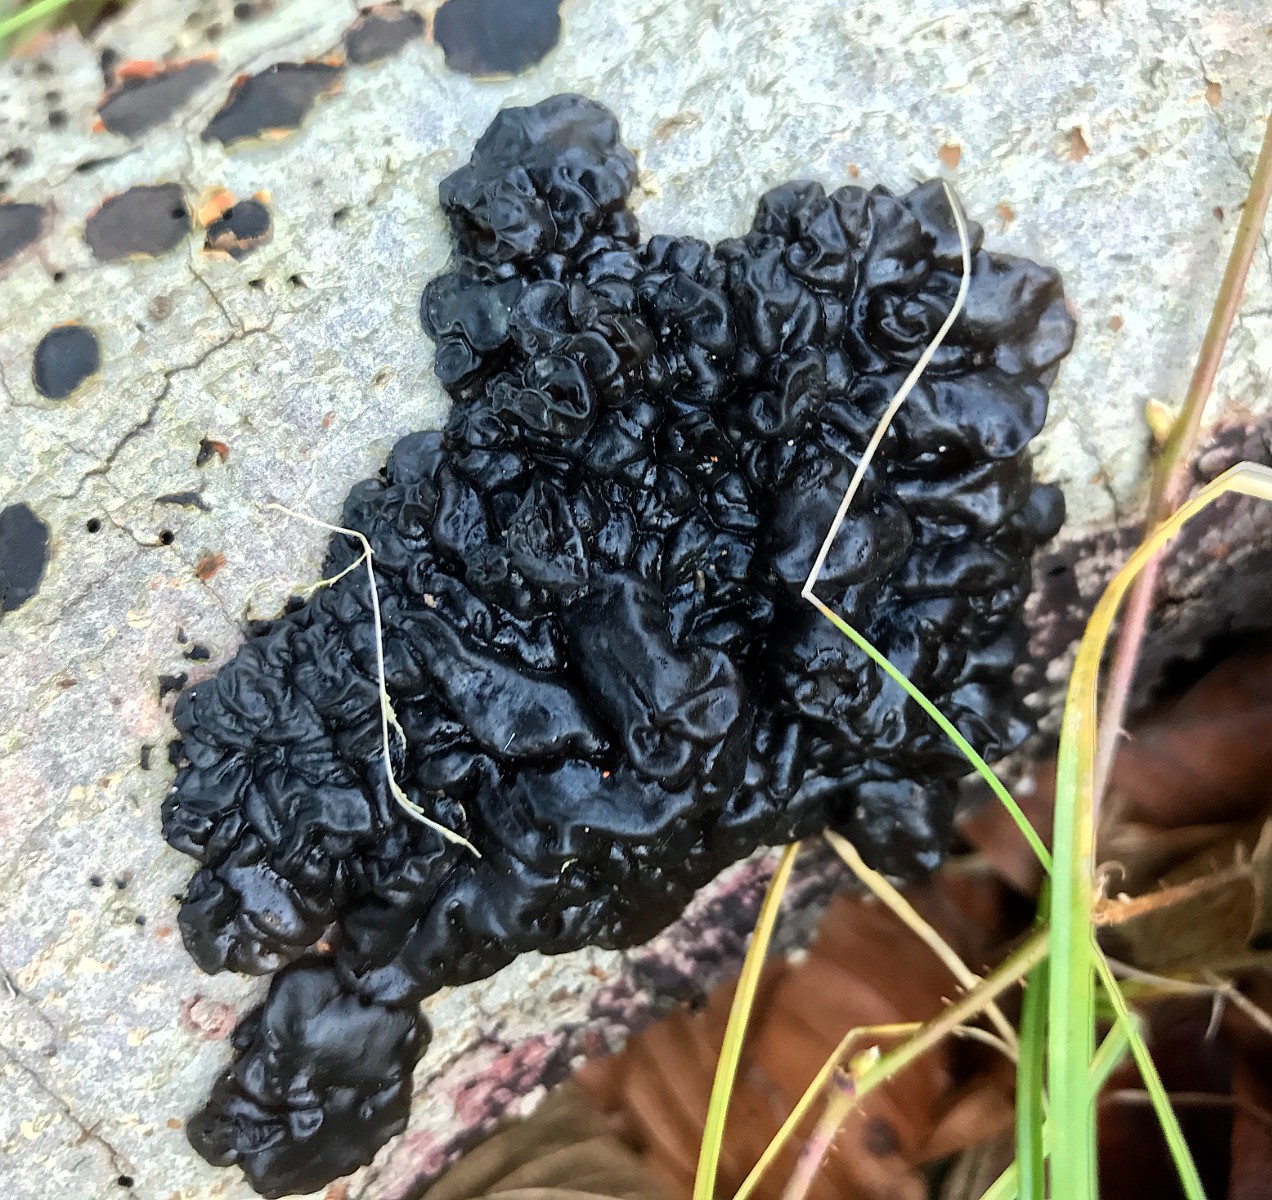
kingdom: Fungi
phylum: Basidiomycota
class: Agaricomycetes
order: Auriculariales
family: Auriculariaceae
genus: Exidia
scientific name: Exidia nigricans
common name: almindelig bævretop
